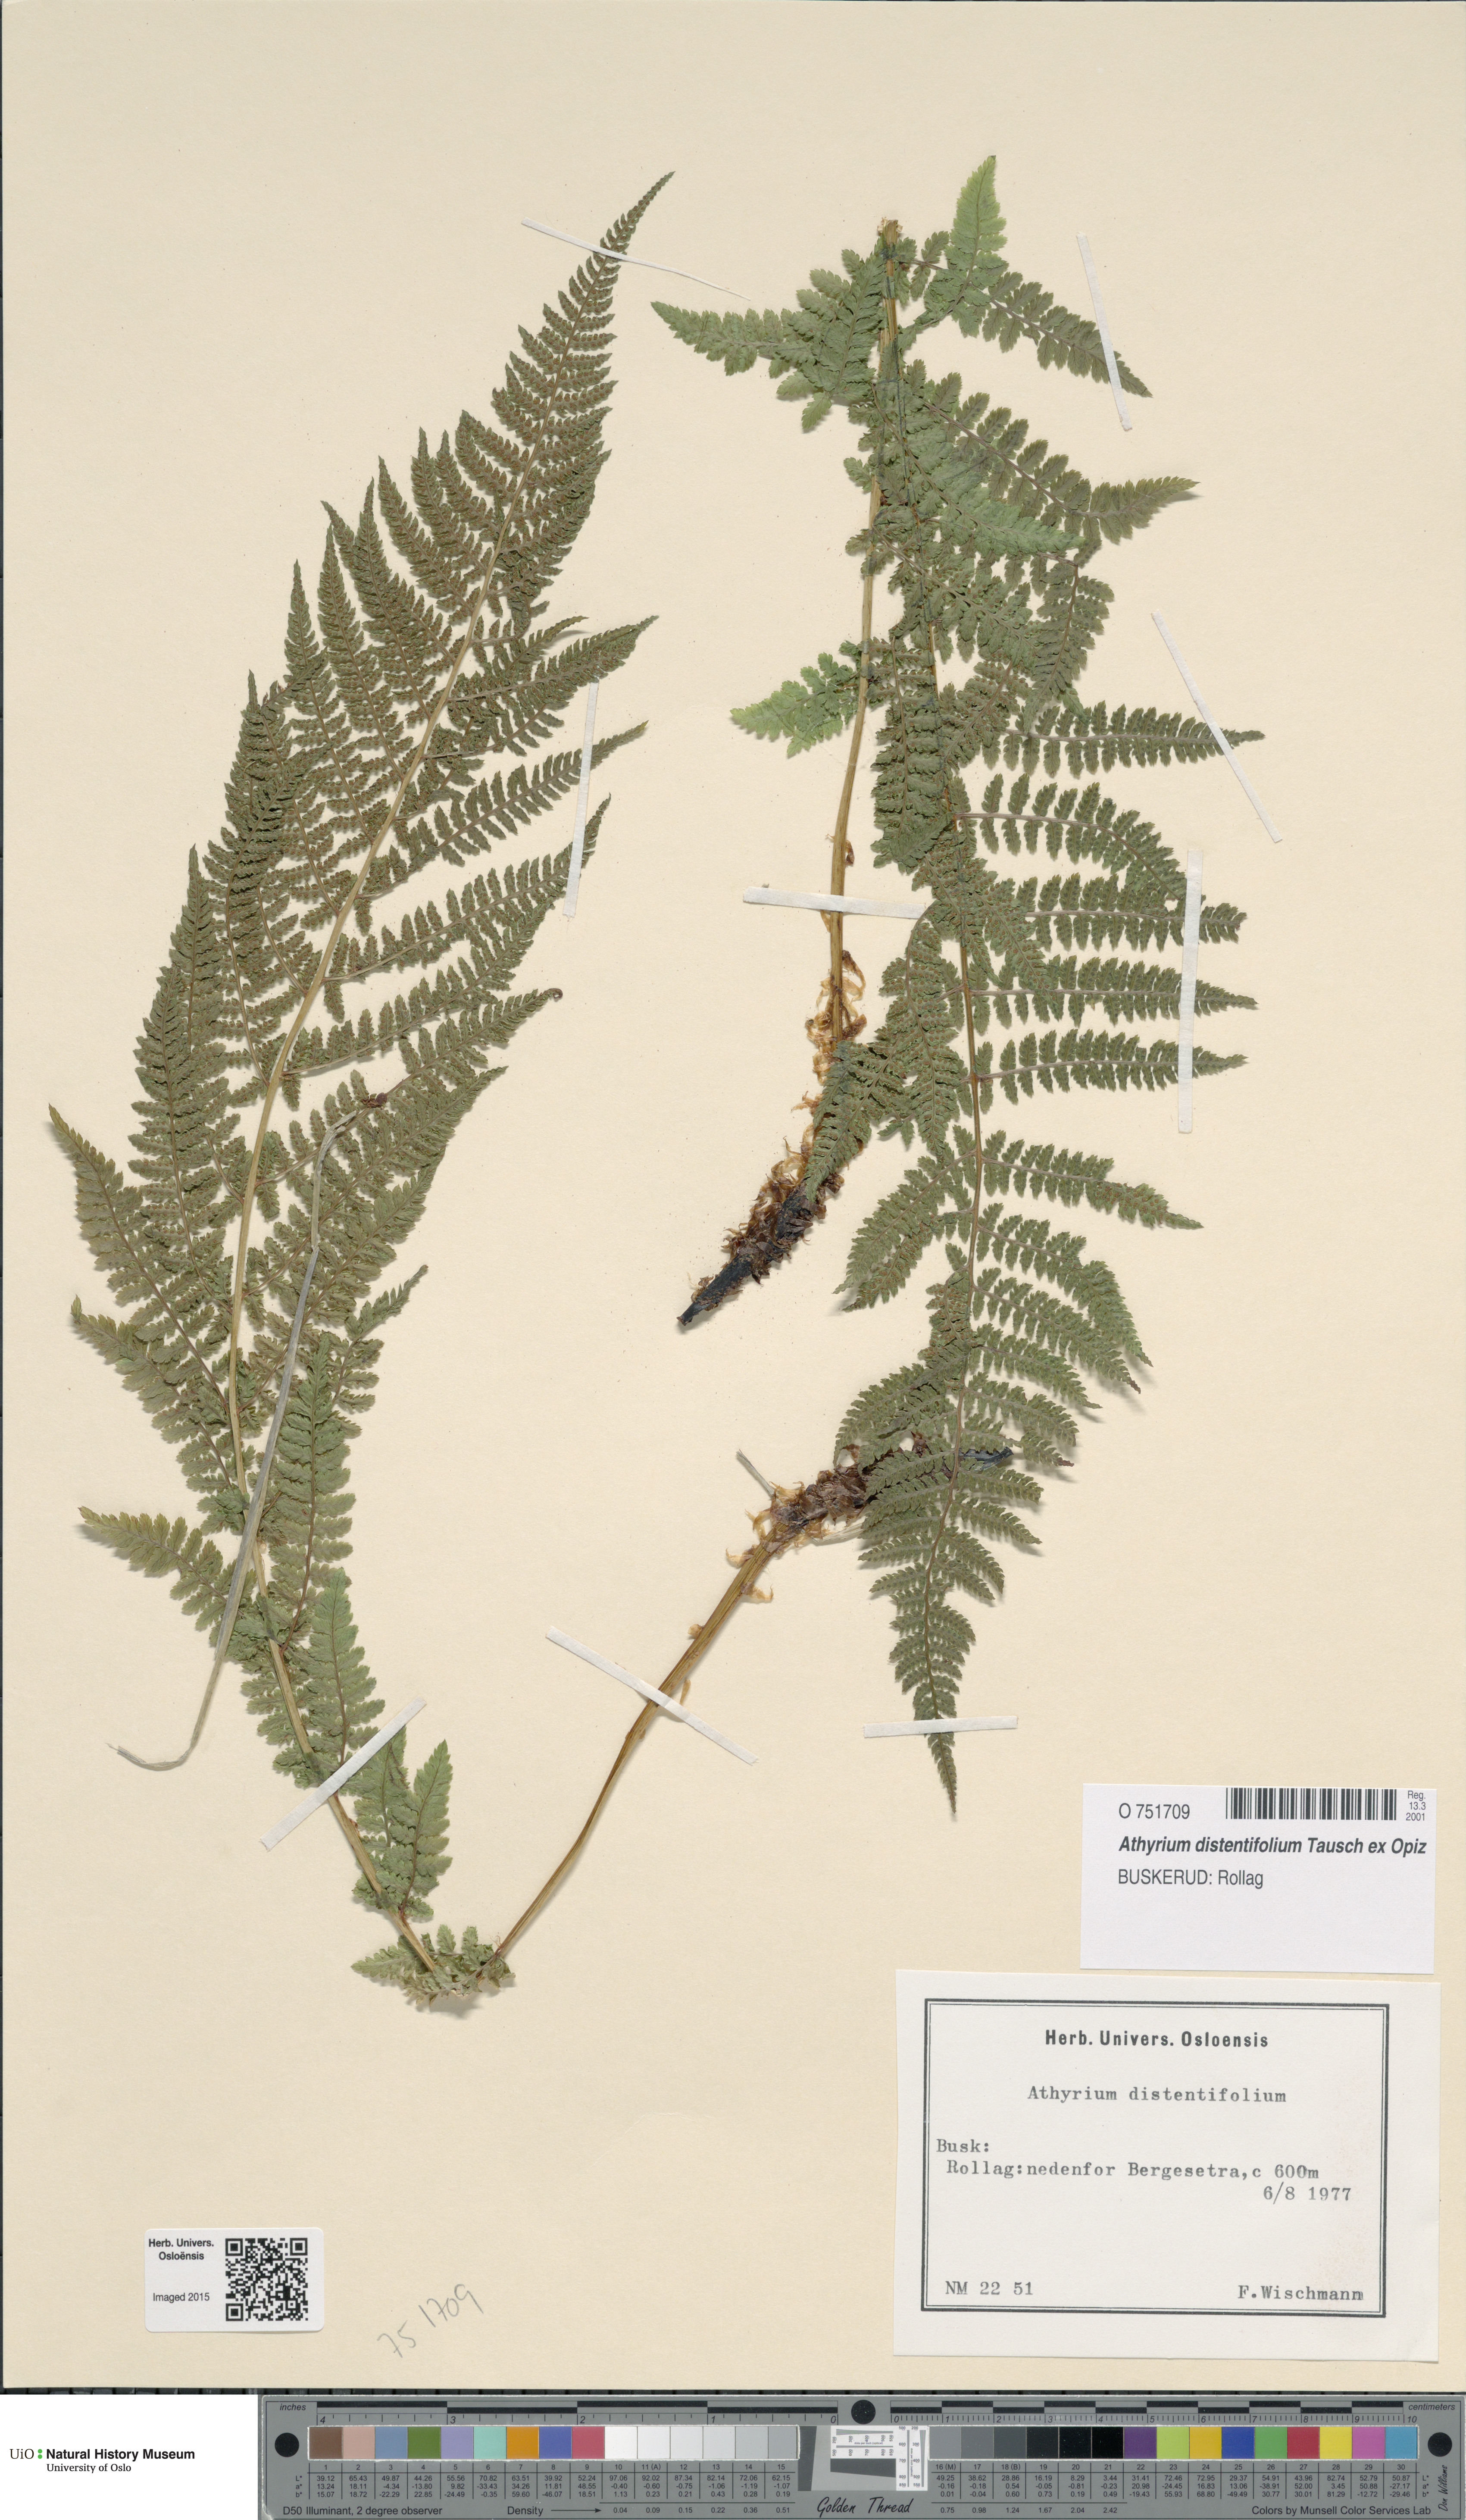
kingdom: Plantae
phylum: Tracheophyta
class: Polypodiopsida
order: Polypodiales
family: Athyriaceae
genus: Pseudathyrium
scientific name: Pseudathyrium alpestre
